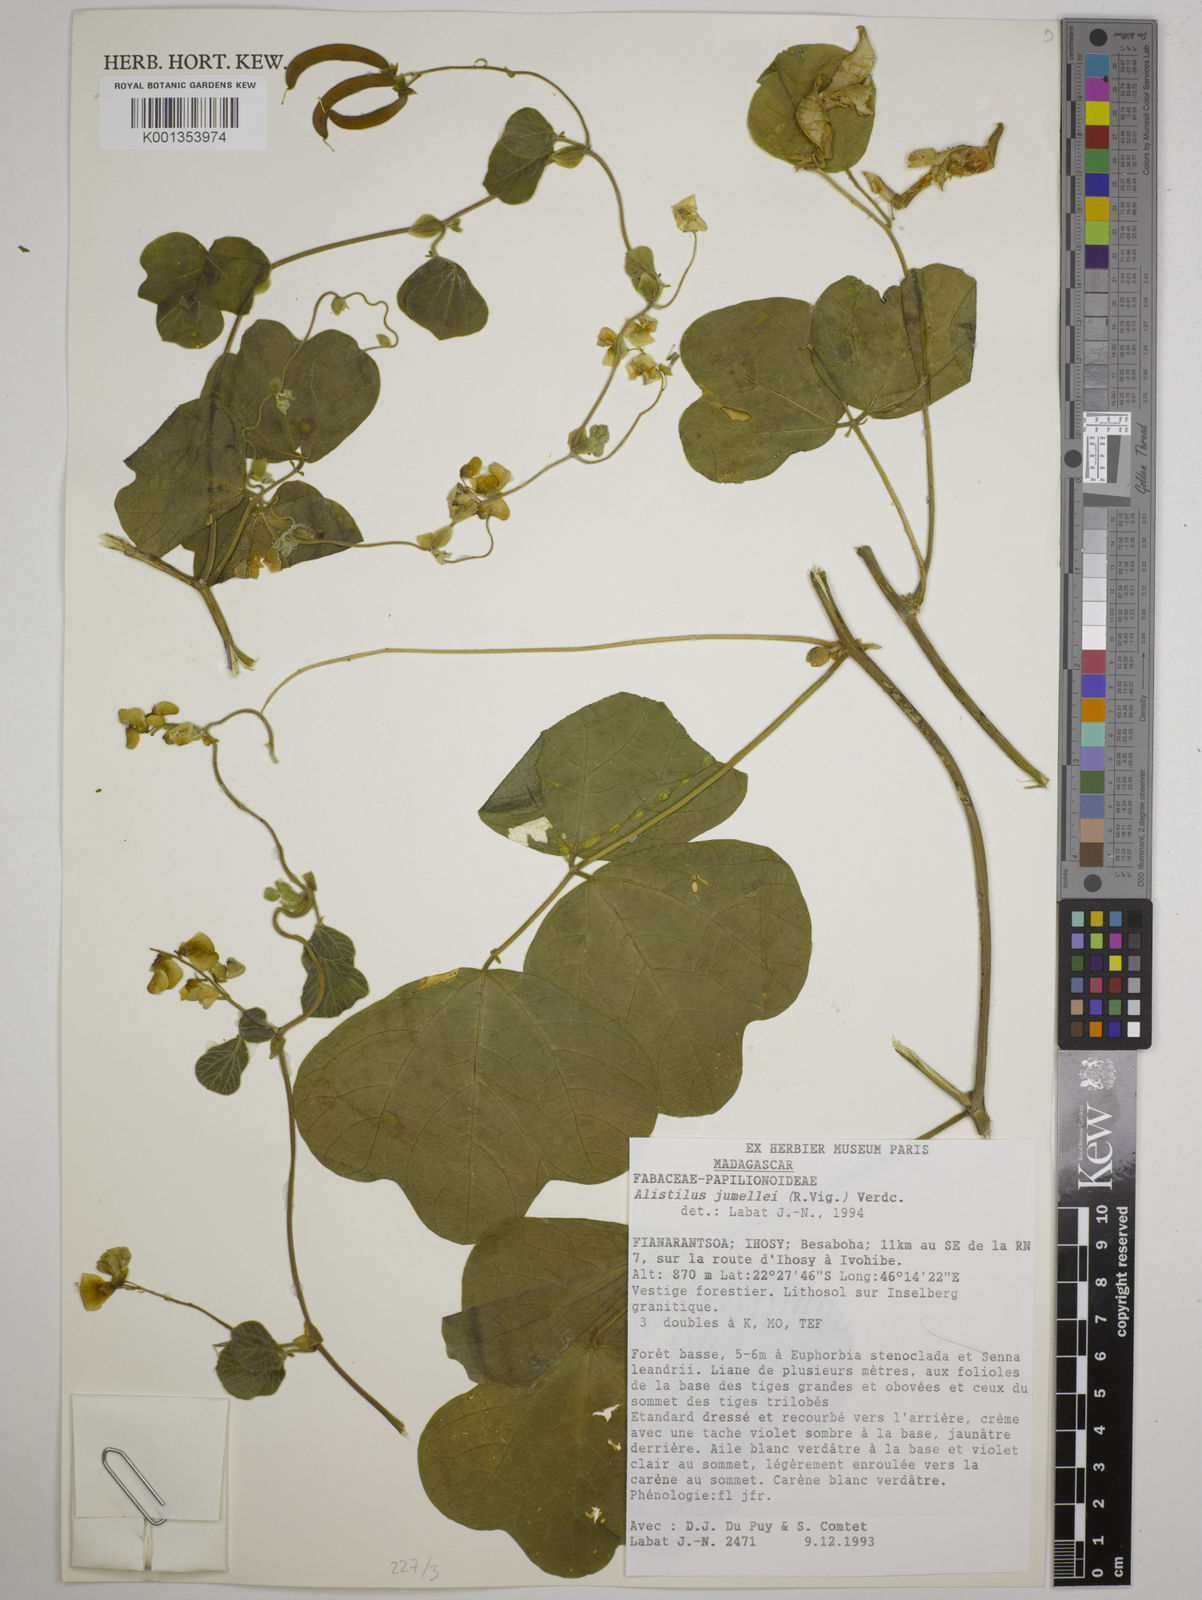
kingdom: Plantae
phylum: Tracheophyta
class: Magnoliopsida
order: Fabales
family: Fabaceae
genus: Alistilus
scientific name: Alistilus jumellei
